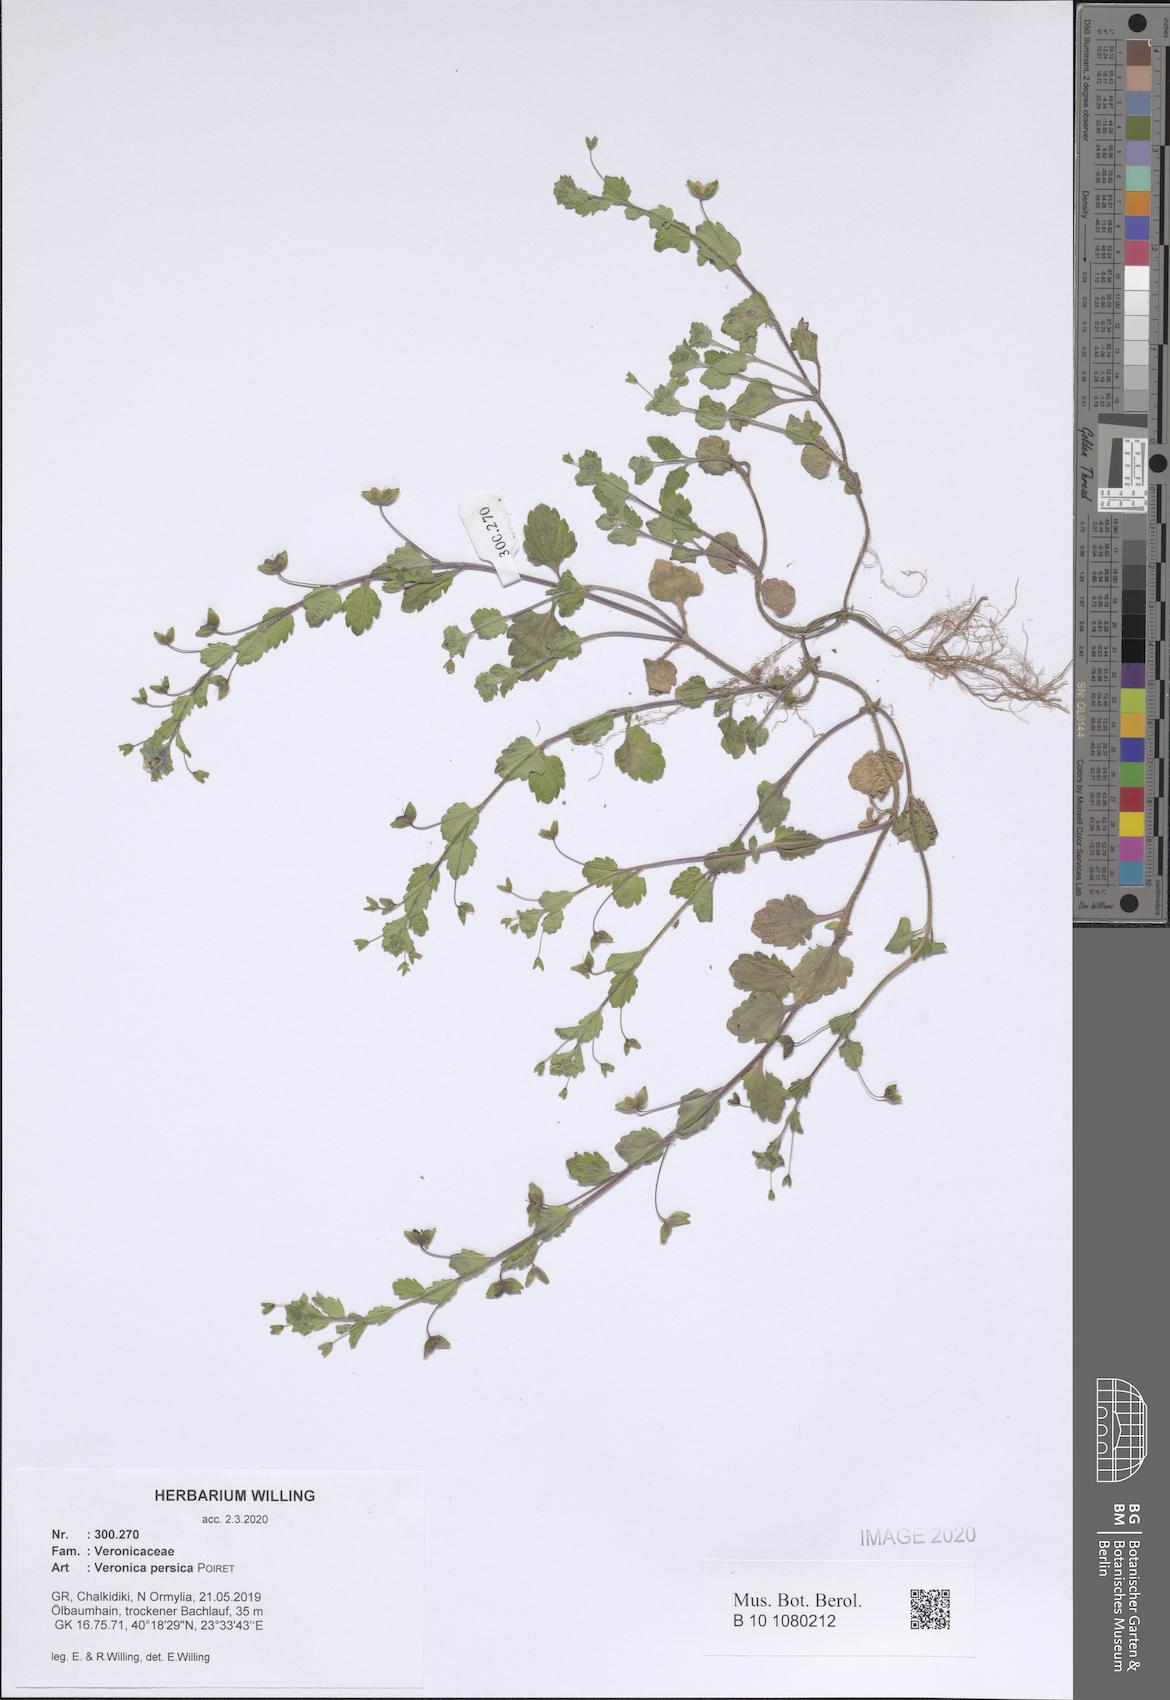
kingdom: Plantae
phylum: Tracheophyta
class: Magnoliopsida
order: Lamiales
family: Plantaginaceae
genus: Veronica
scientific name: Veronica persica
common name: Common field-speedwell
